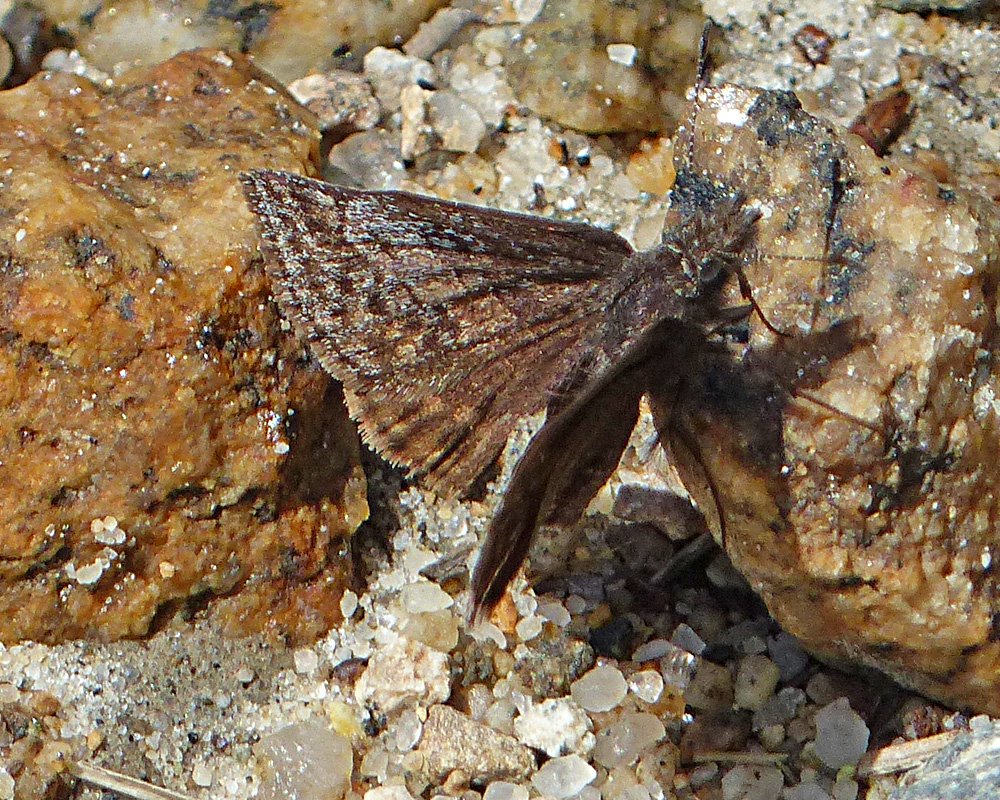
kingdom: Animalia
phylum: Arthropoda
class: Insecta
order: Lepidoptera
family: Hesperiidae
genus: Erynnis
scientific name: Erynnis icelus
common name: Dreamy Duskywing
